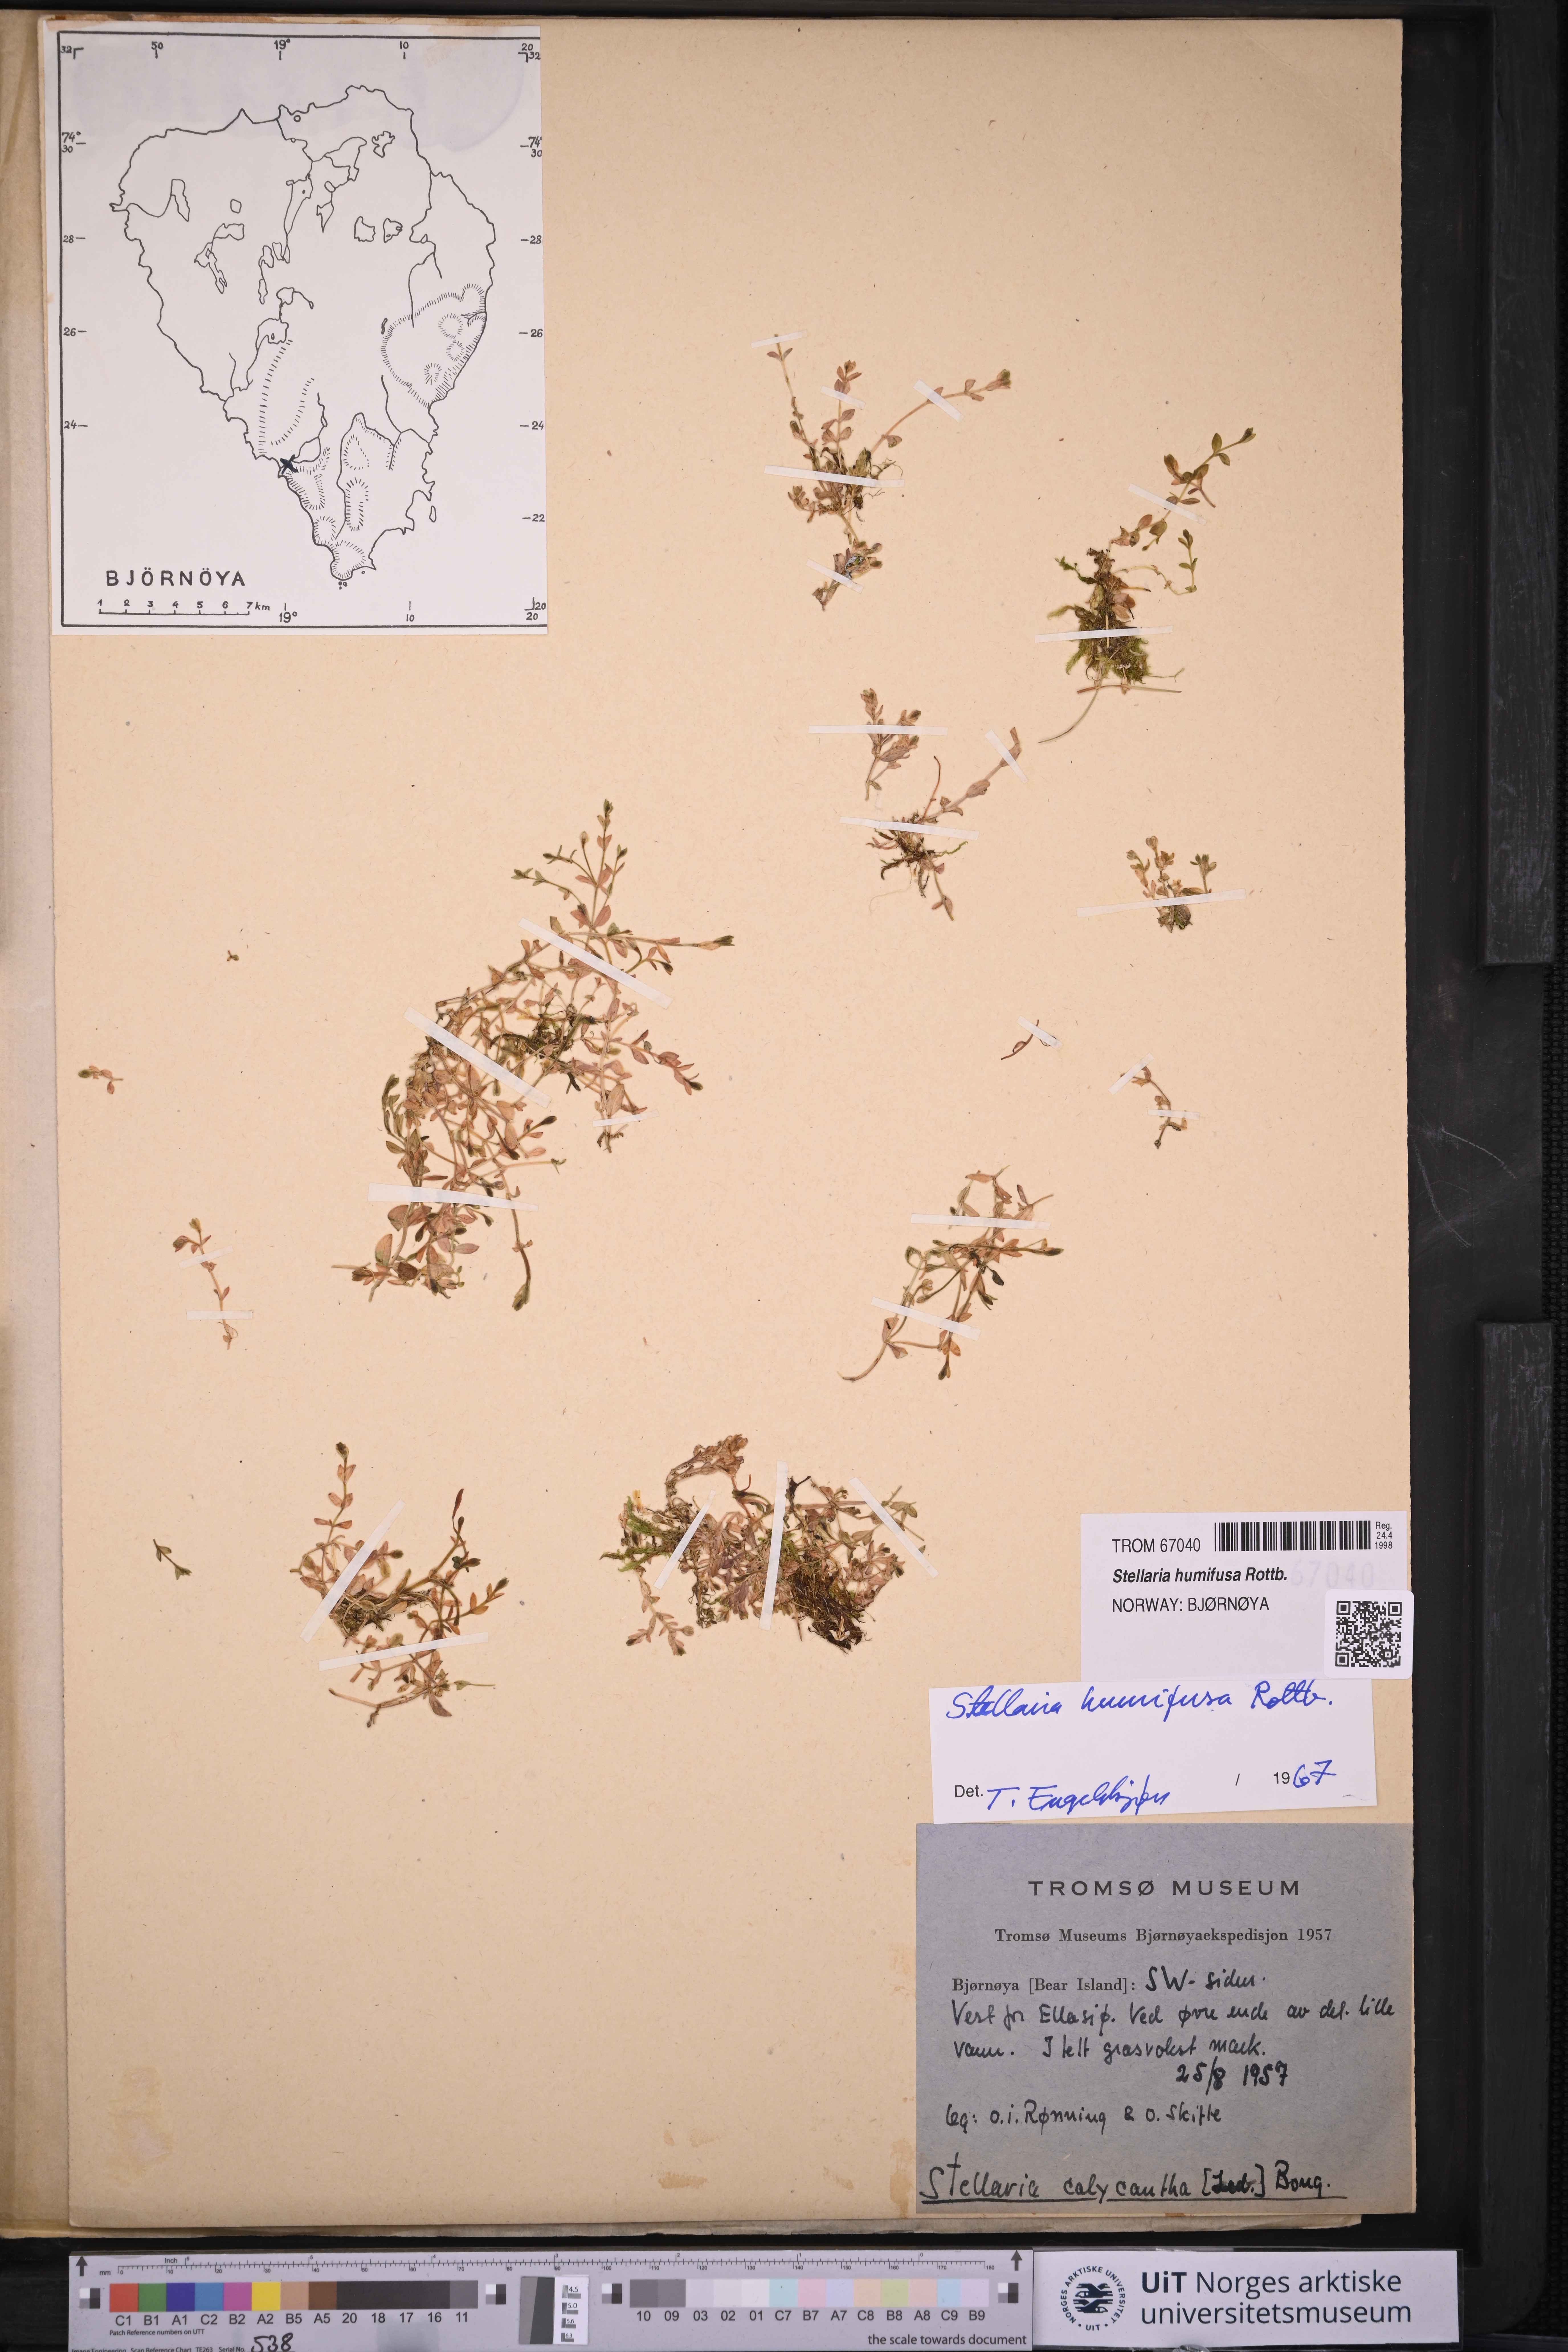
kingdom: Plantae
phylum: Tracheophyta
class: Magnoliopsida
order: Caryophyllales
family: Caryophyllaceae
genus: Stellaria
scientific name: Stellaria humifusa
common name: Creeping starwort
